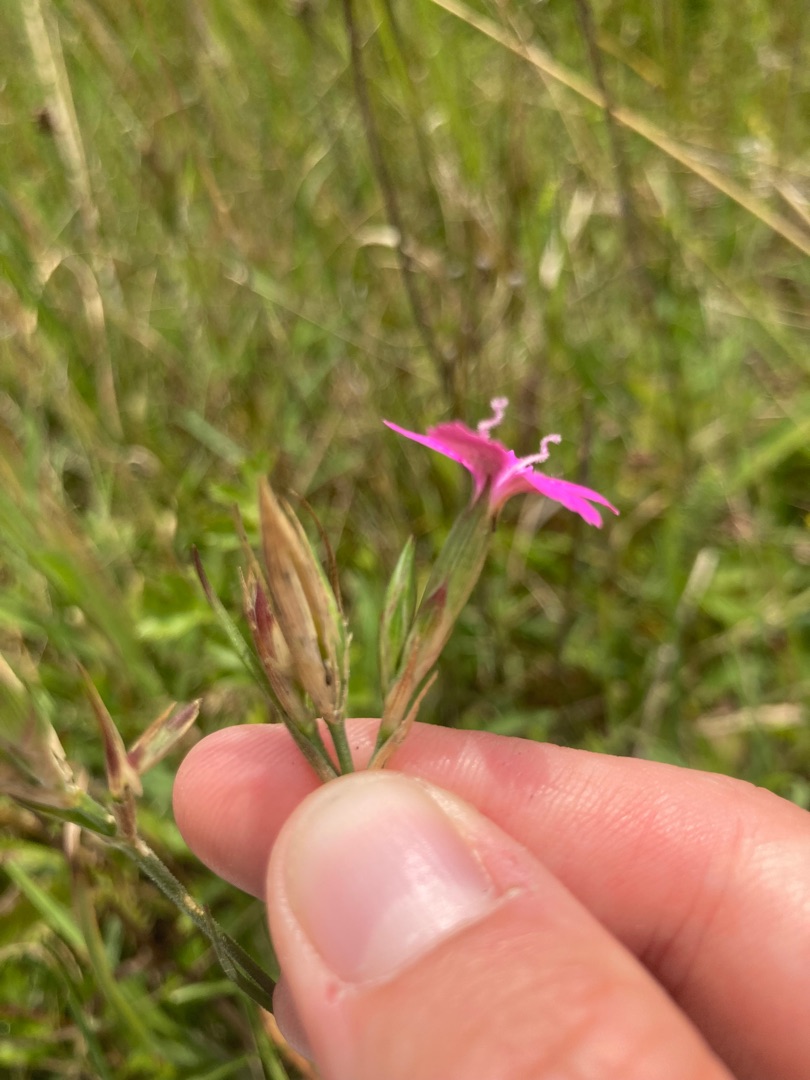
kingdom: Plantae
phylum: Tracheophyta
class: Magnoliopsida
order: Caryophyllales
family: Caryophyllaceae
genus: Dianthus
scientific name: Dianthus deltoides
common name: Bakke-nellike
